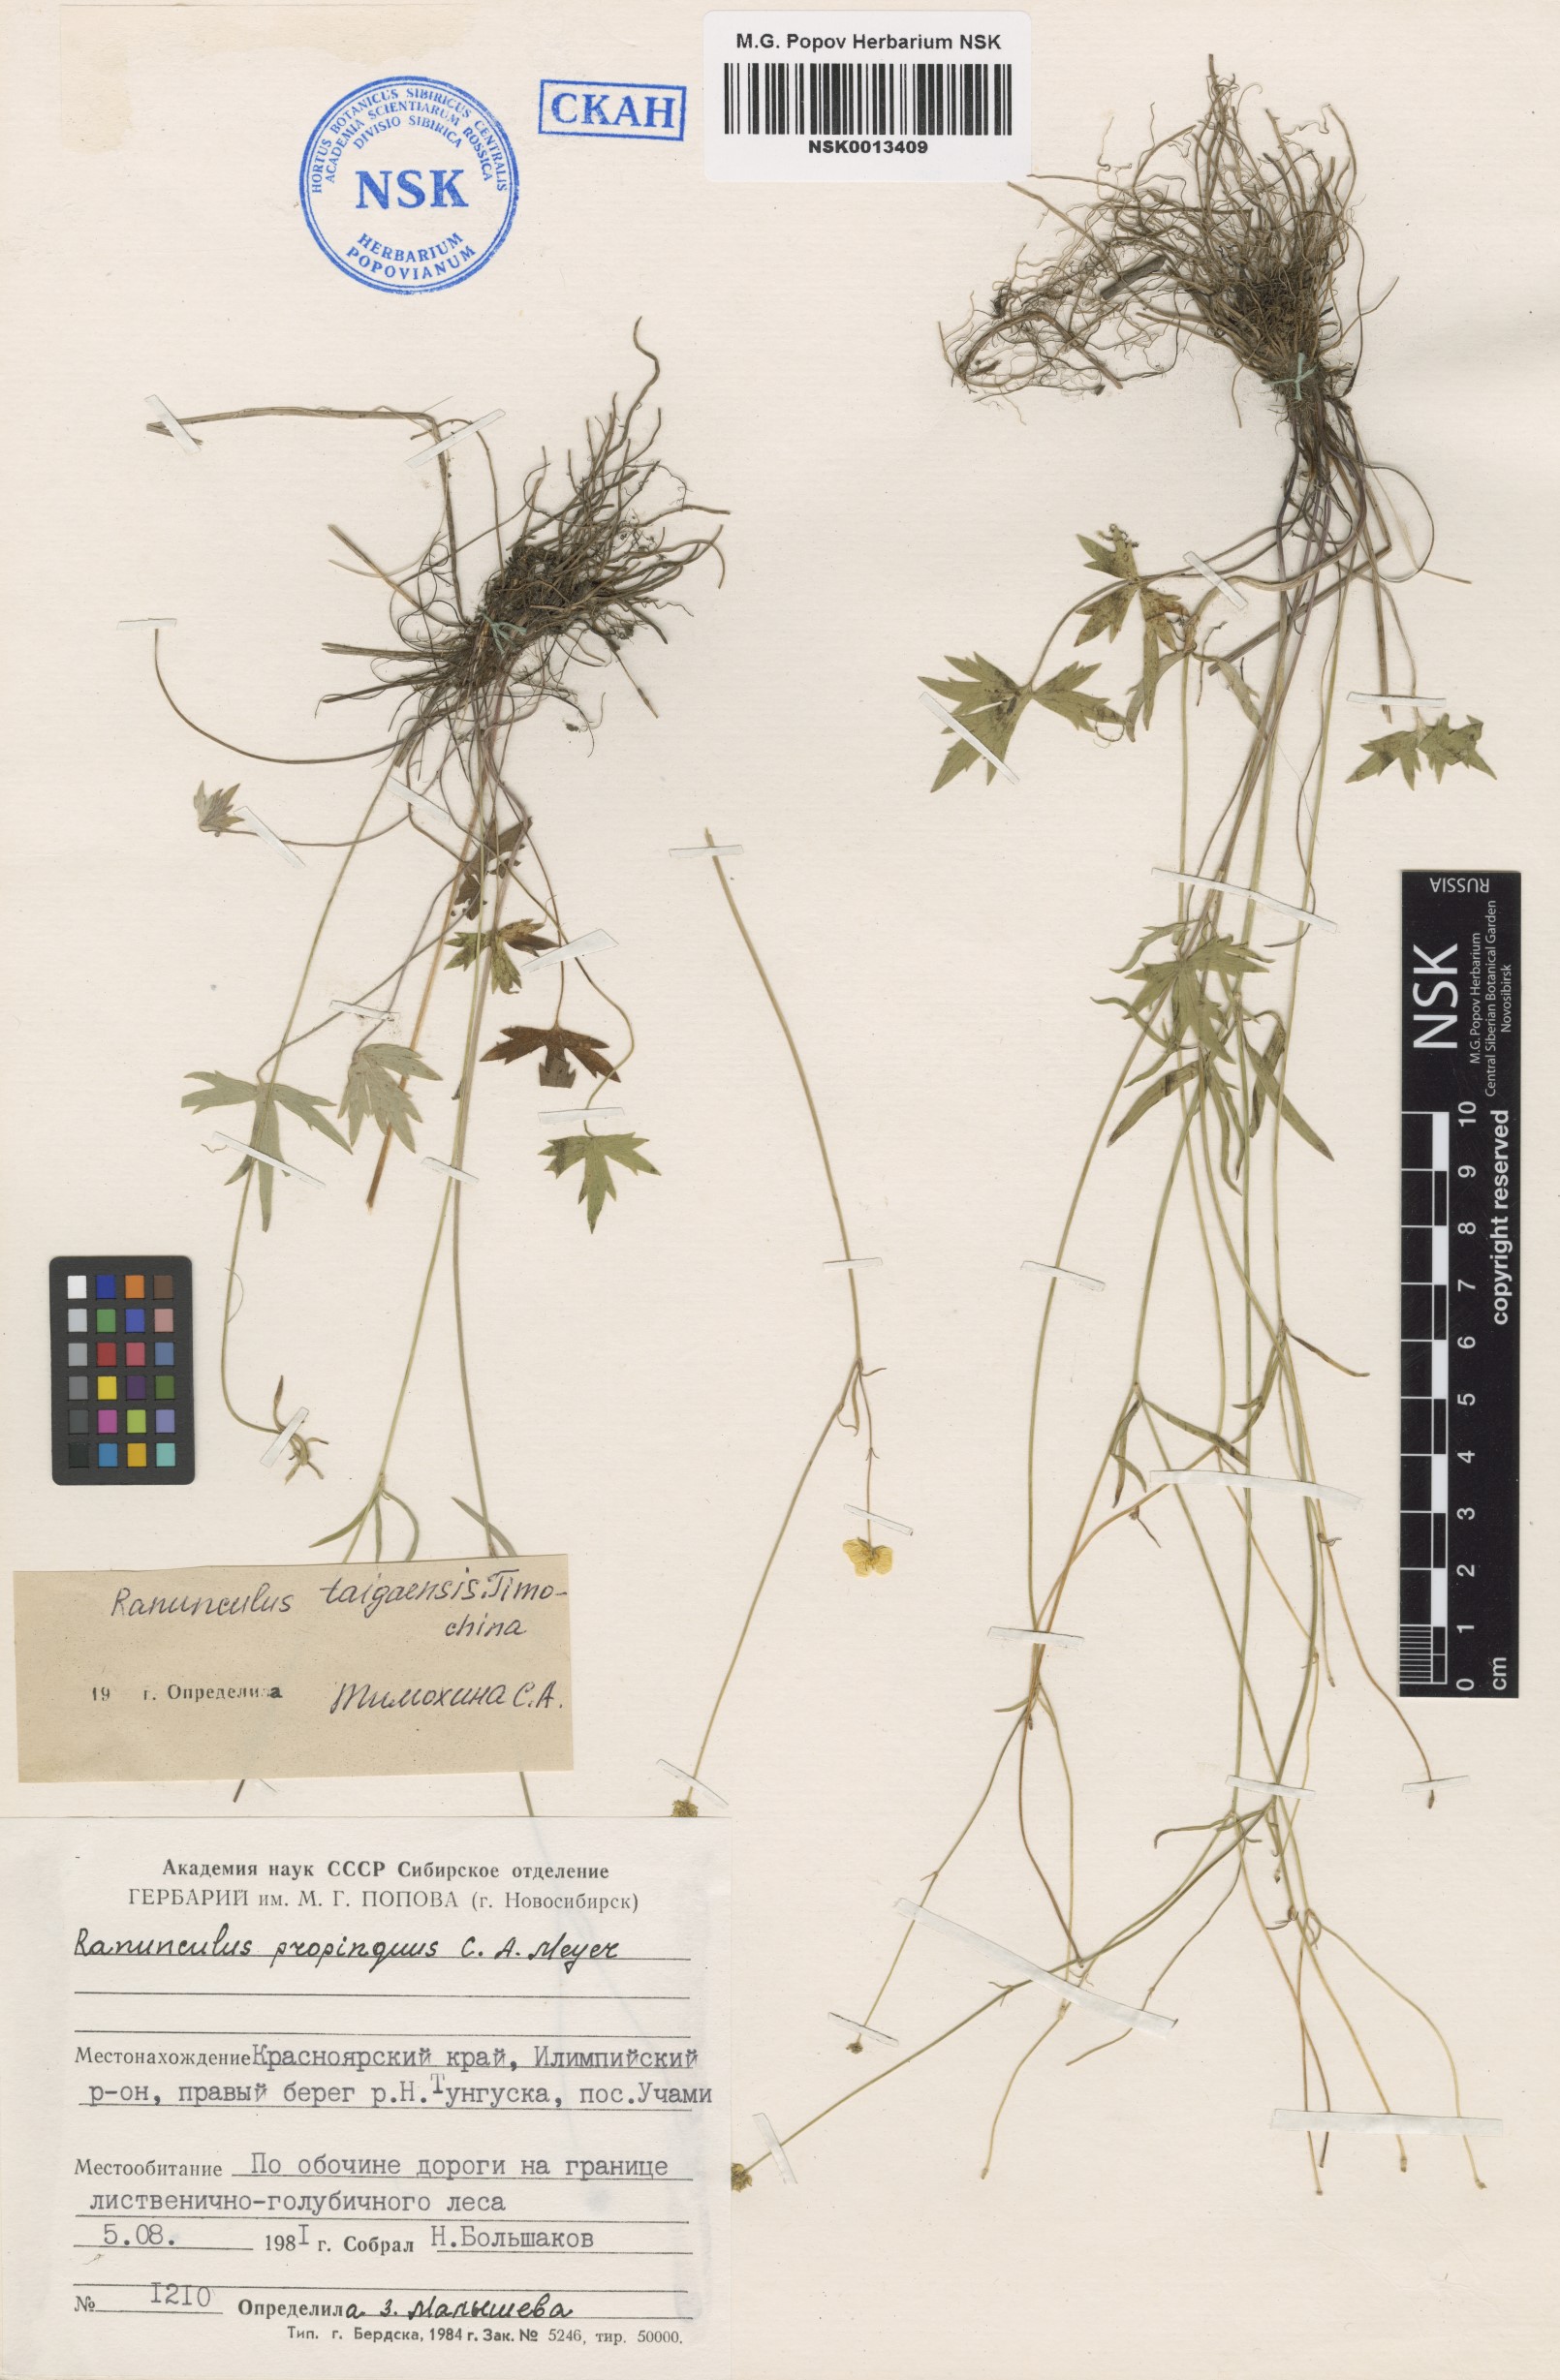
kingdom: Plantae
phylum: Tracheophyta
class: Magnoliopsida
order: Ranunculales
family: Ranunculaceae
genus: Ranunculus
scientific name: Ranunculus taigaensis
